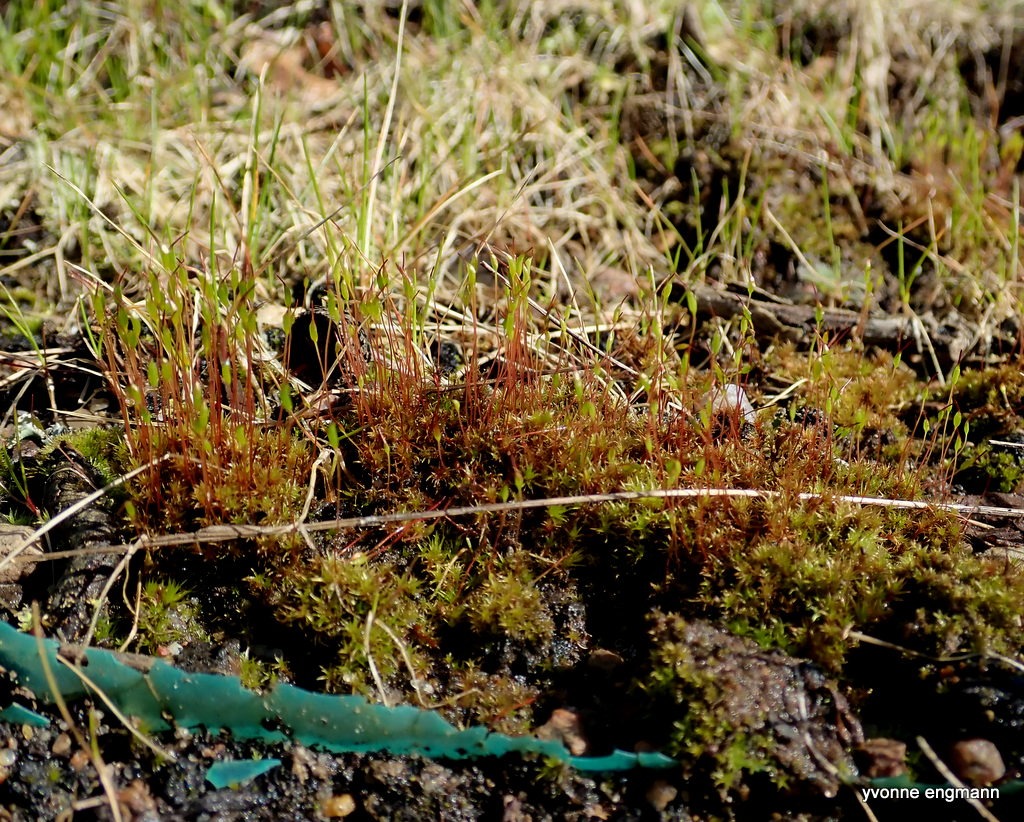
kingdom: Plantae
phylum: Bryophyta
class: Bryopsida
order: Dicranales
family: Ditrichaceae
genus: Ceratodon
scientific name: Ceratodon purpureus
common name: Rød horntand
